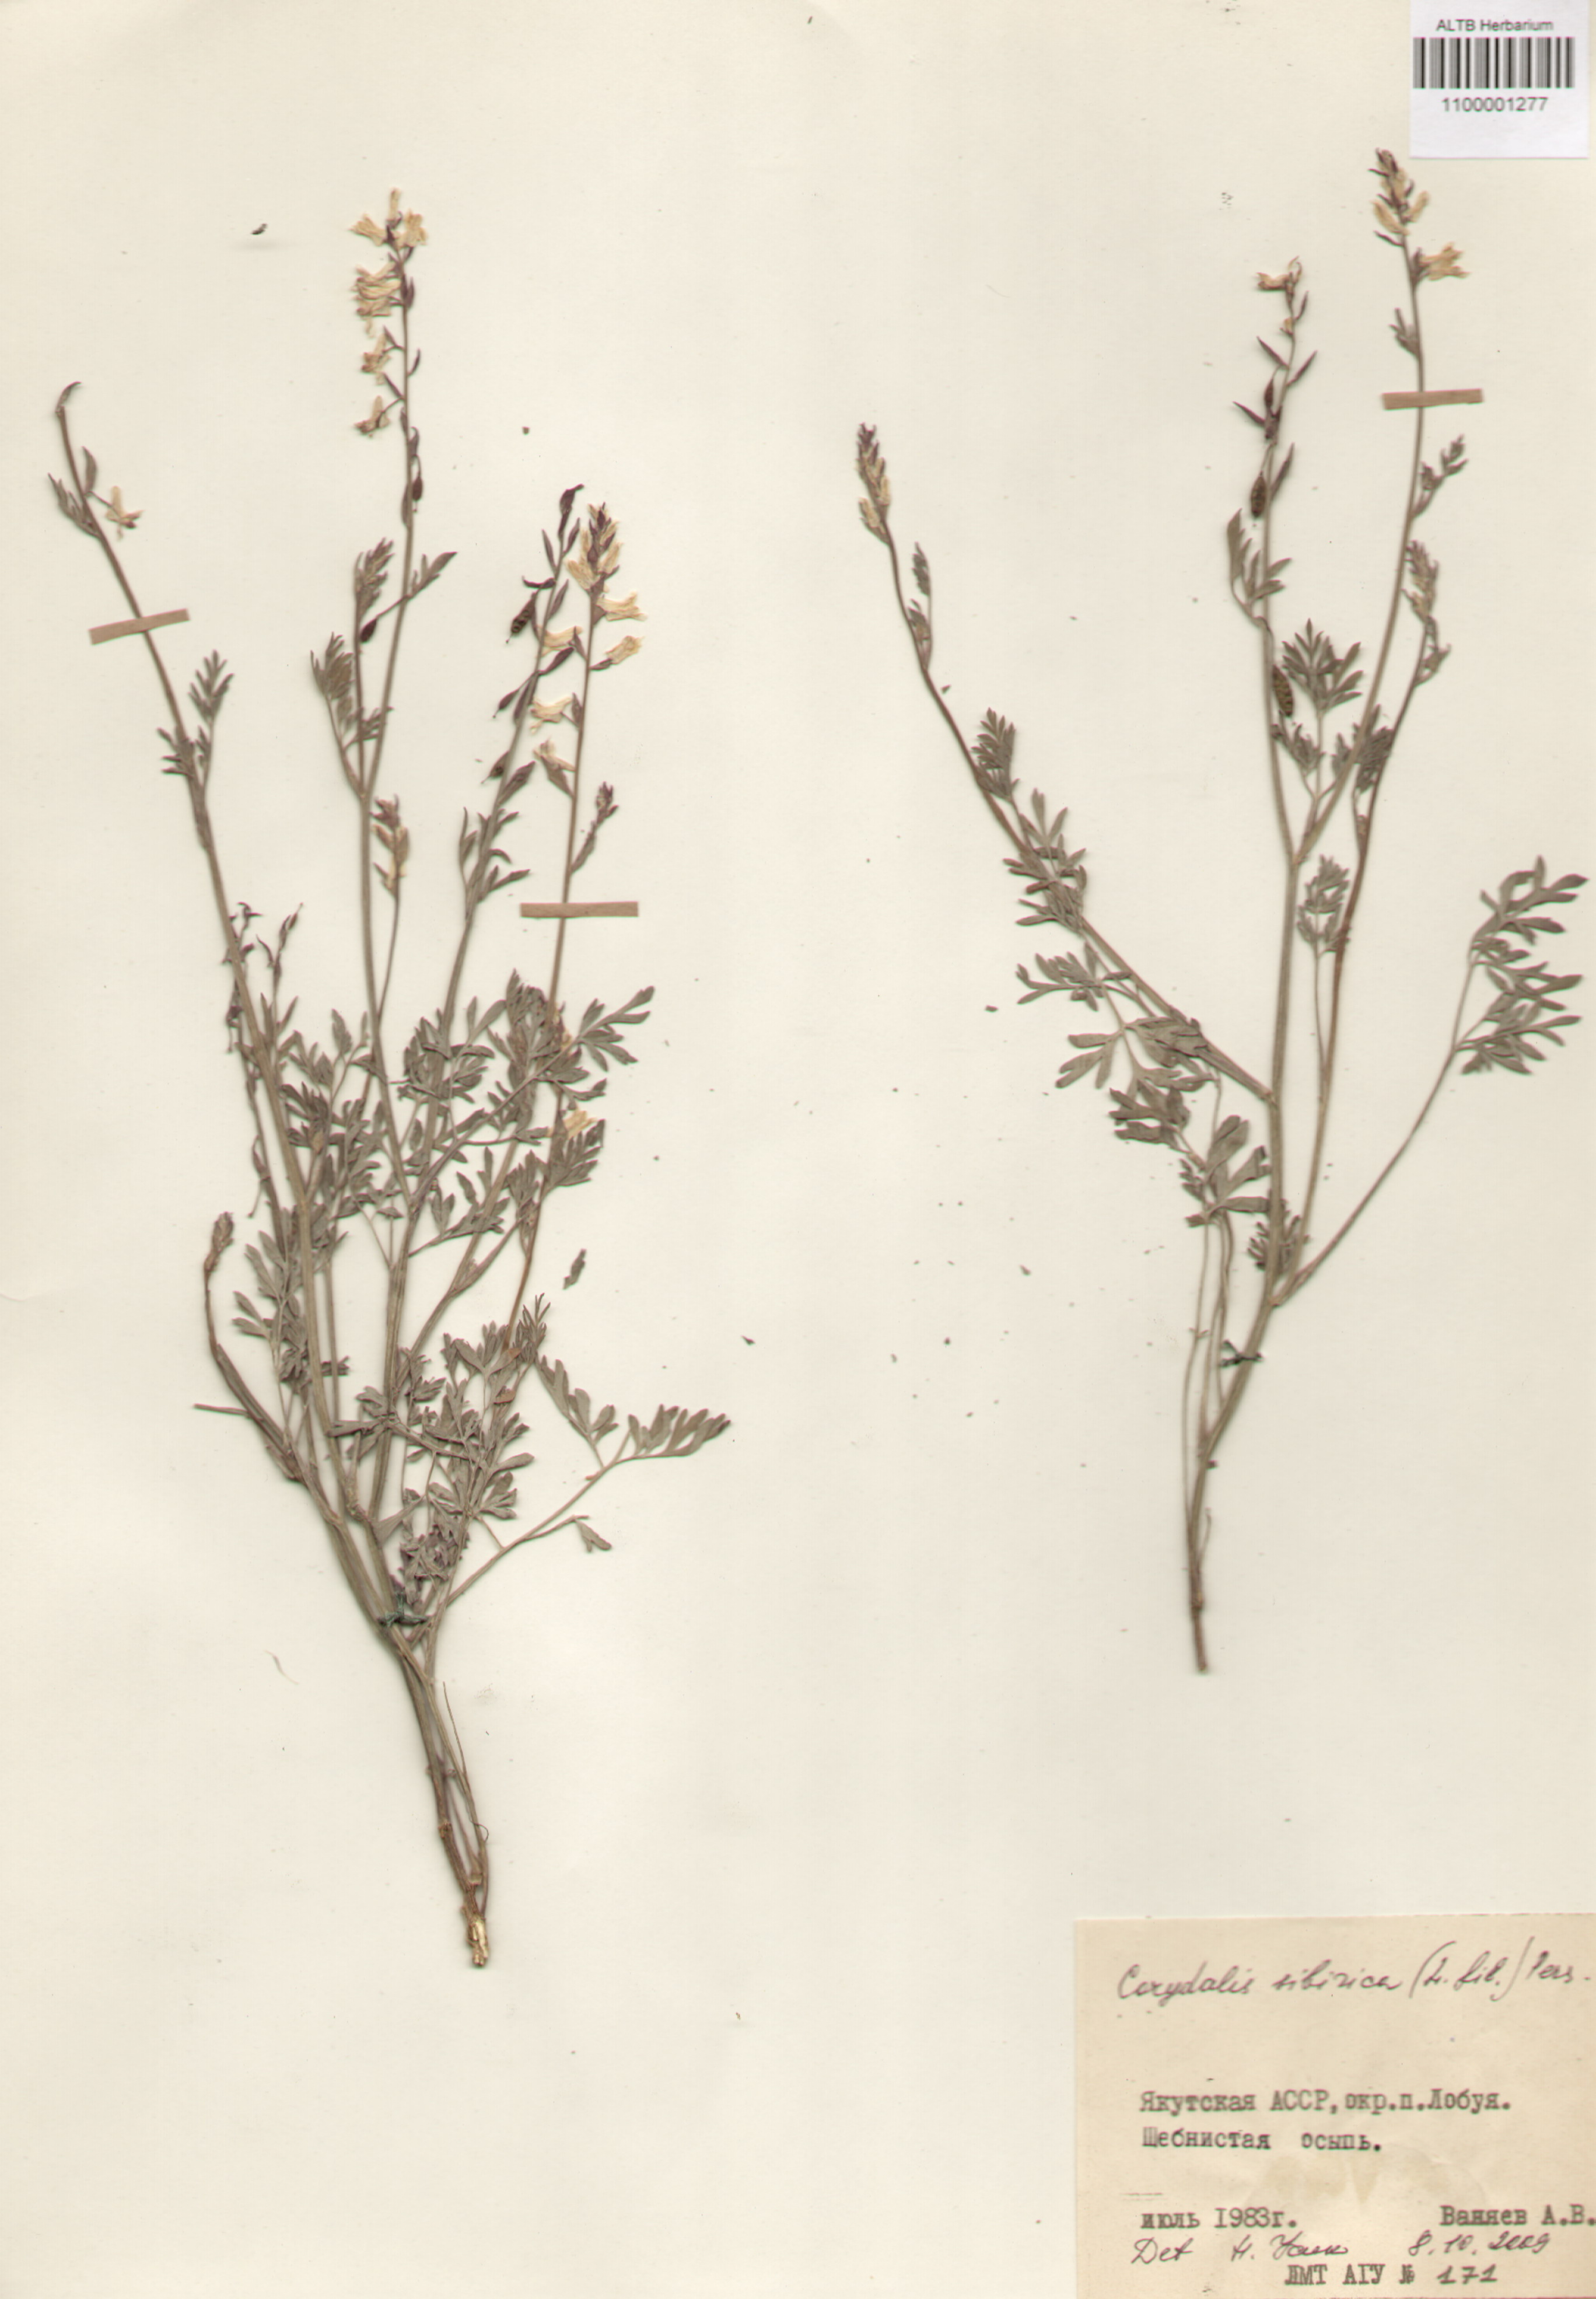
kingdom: Plantae
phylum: Tracheophyta
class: Magnoliopsida
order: Ranunculales
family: Papaveraceae
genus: Corydalis
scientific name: Corydalis sibirica
